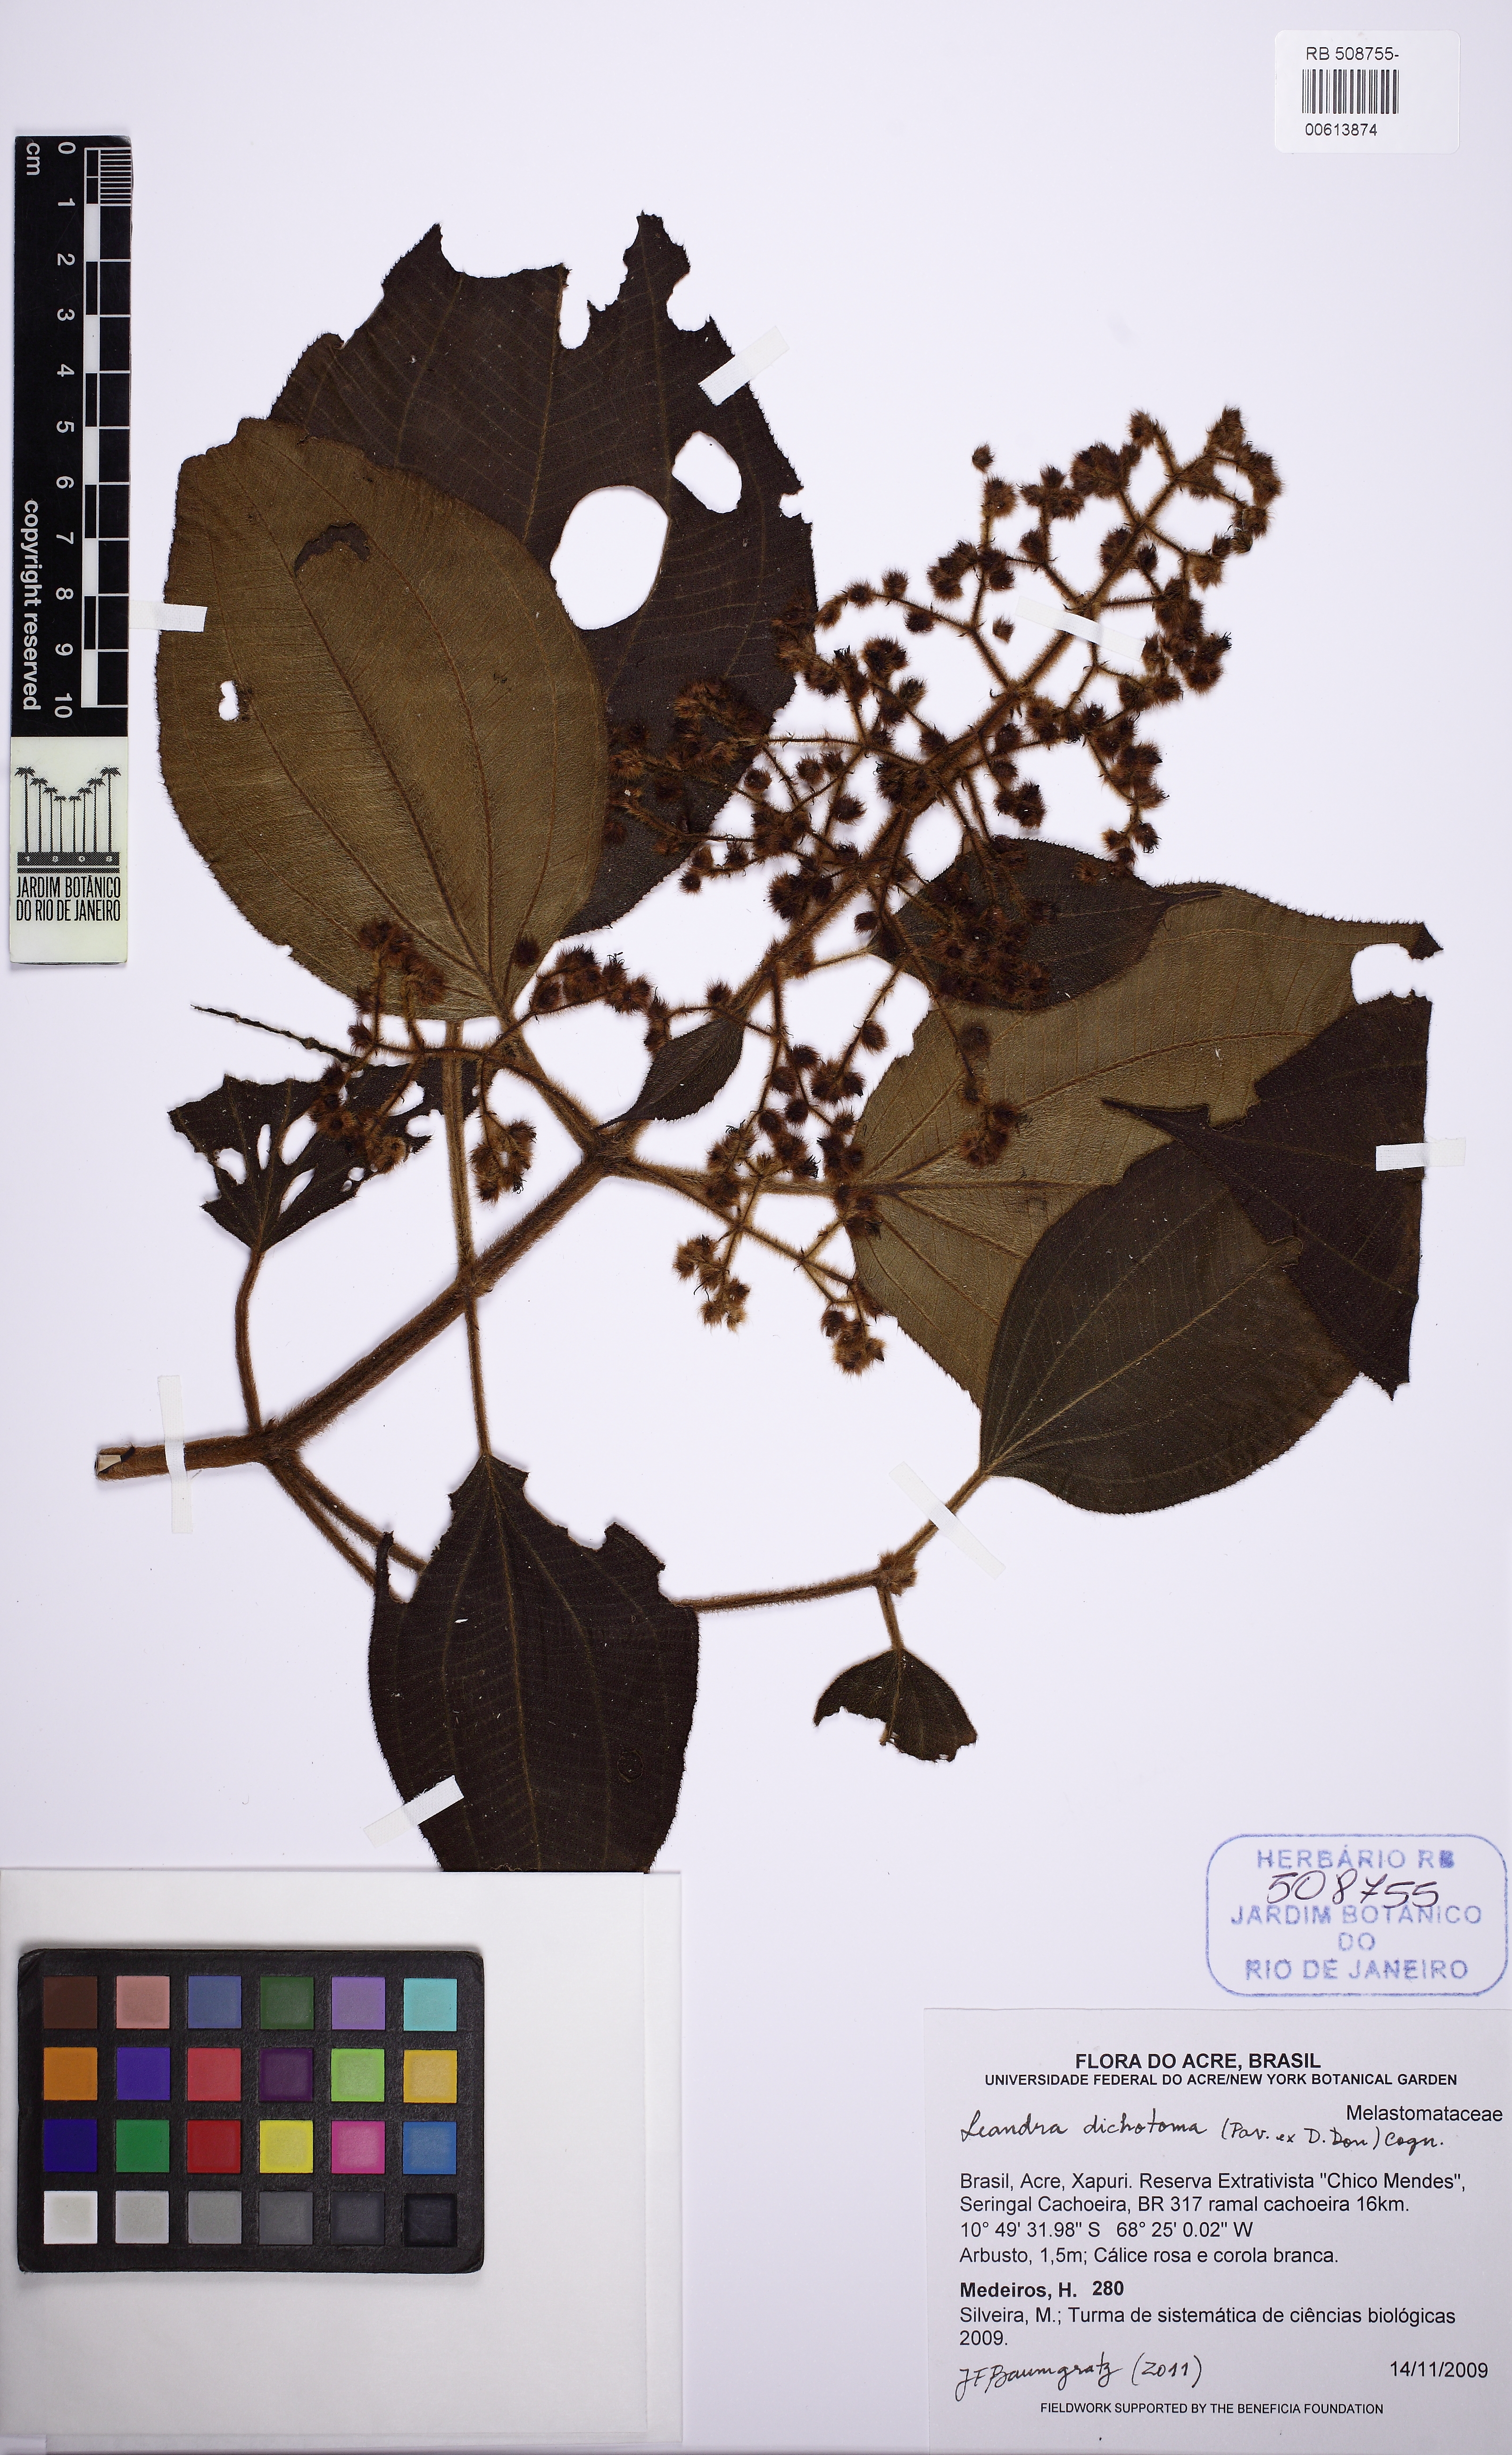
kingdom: Plantae
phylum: Tracheophyta
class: Magnoliopsida
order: Myrtales
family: Melastomataceae
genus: Miconia
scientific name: Miconia sulcicaulis
